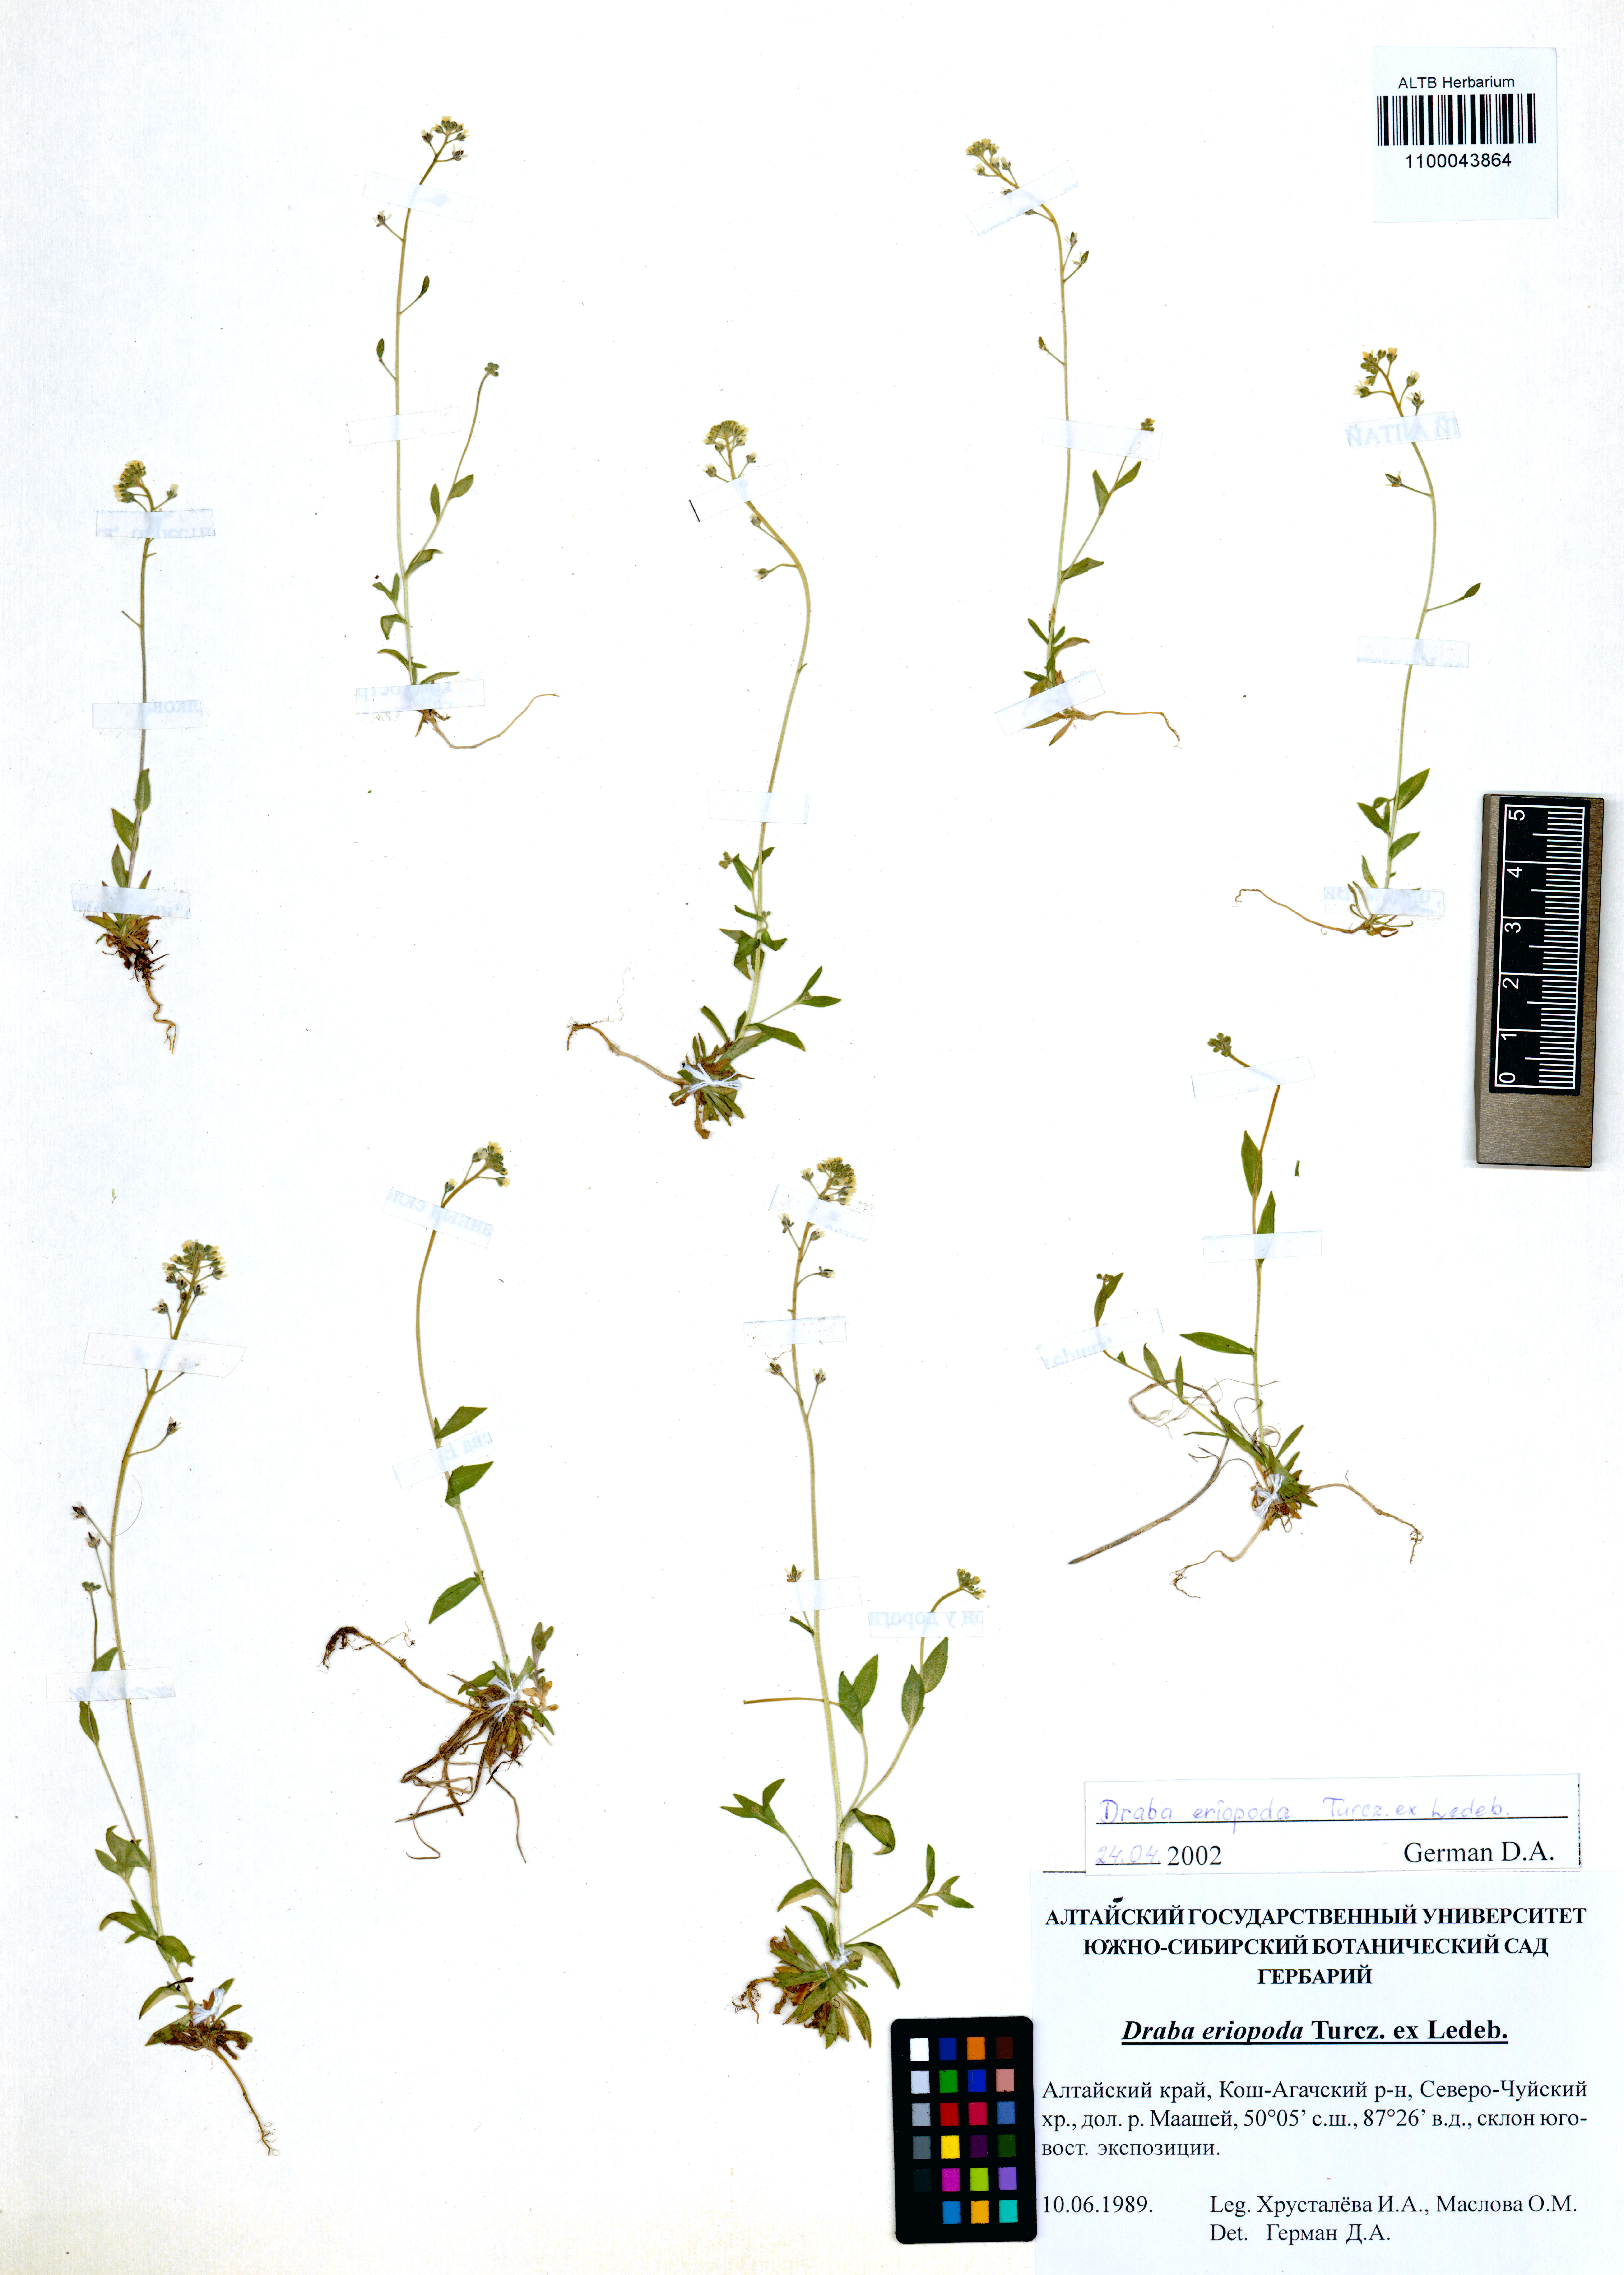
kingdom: Plantae
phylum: Tracheophyta
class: Magnoliopsida
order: Brassicales
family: Brassicaceae
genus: Draba
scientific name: Draba eriopoda
